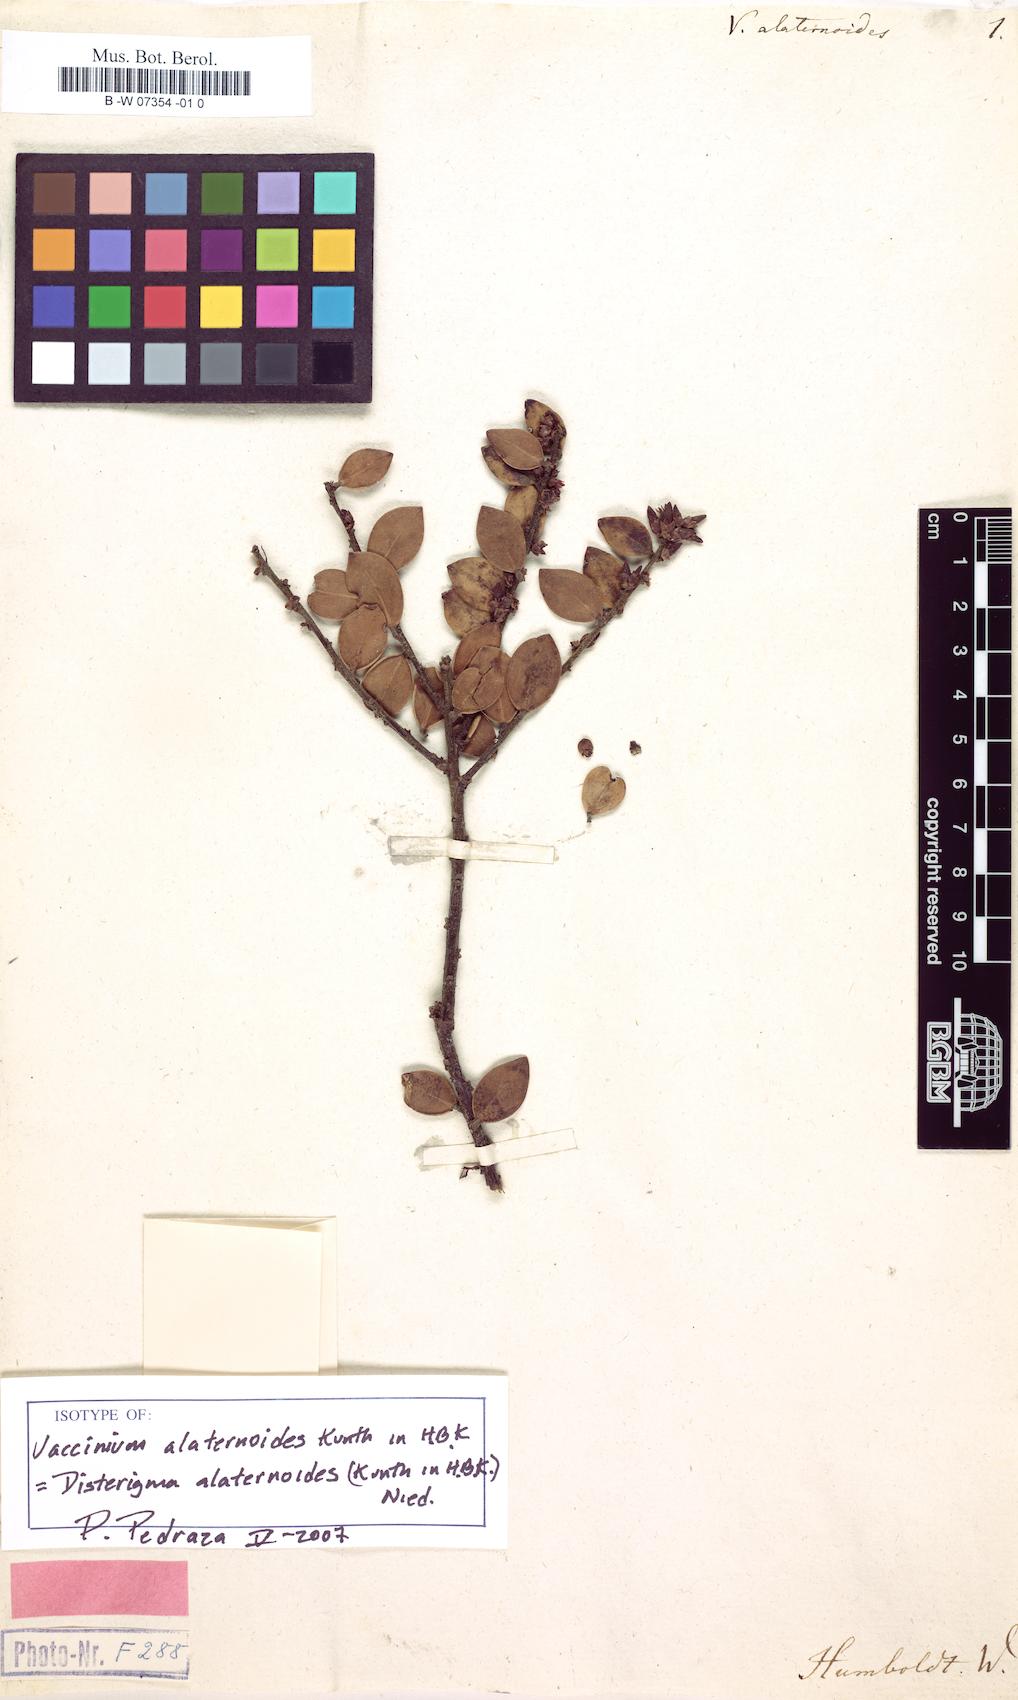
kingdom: Plantae
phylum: Tracheophyta
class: Magnoliopsida
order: Ericales
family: Ericaceae
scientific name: Ericaceae
